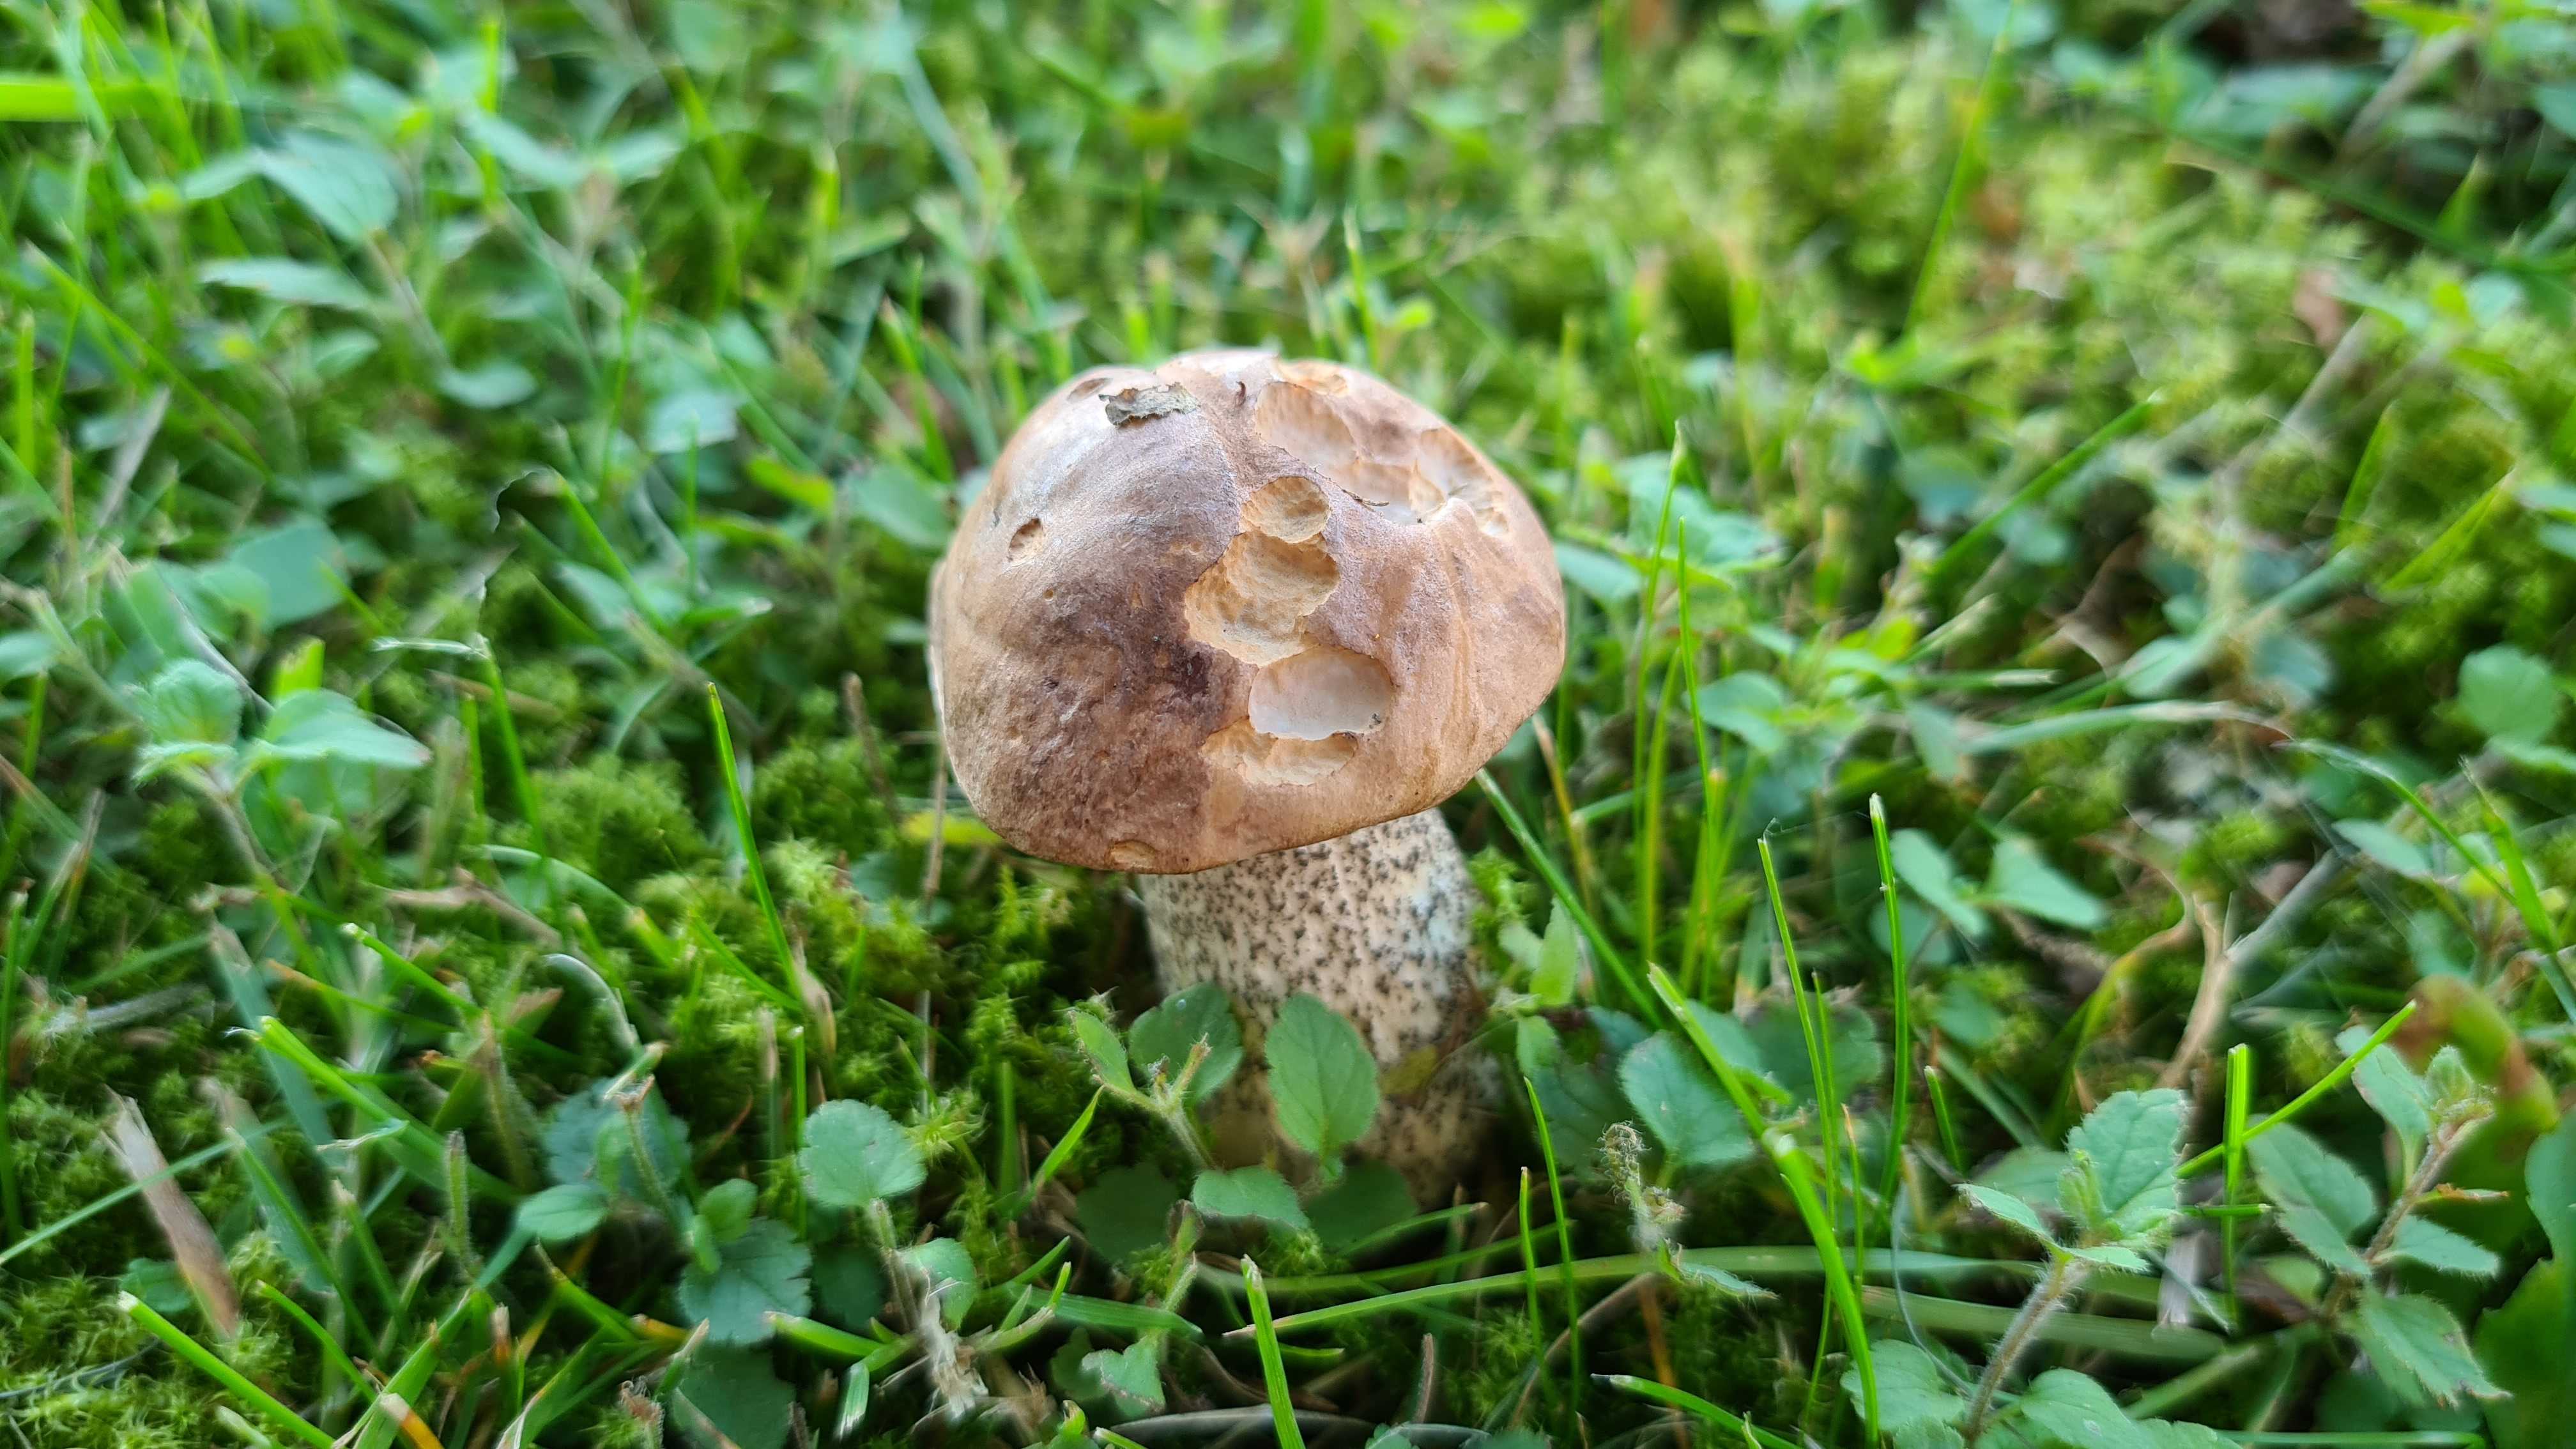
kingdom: Fungi
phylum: Basidiomycota
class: Agaricomycetes
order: Boletales
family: Boletaceae
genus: Leccinum
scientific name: Leccinum scabrum
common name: brun skælrørhat
